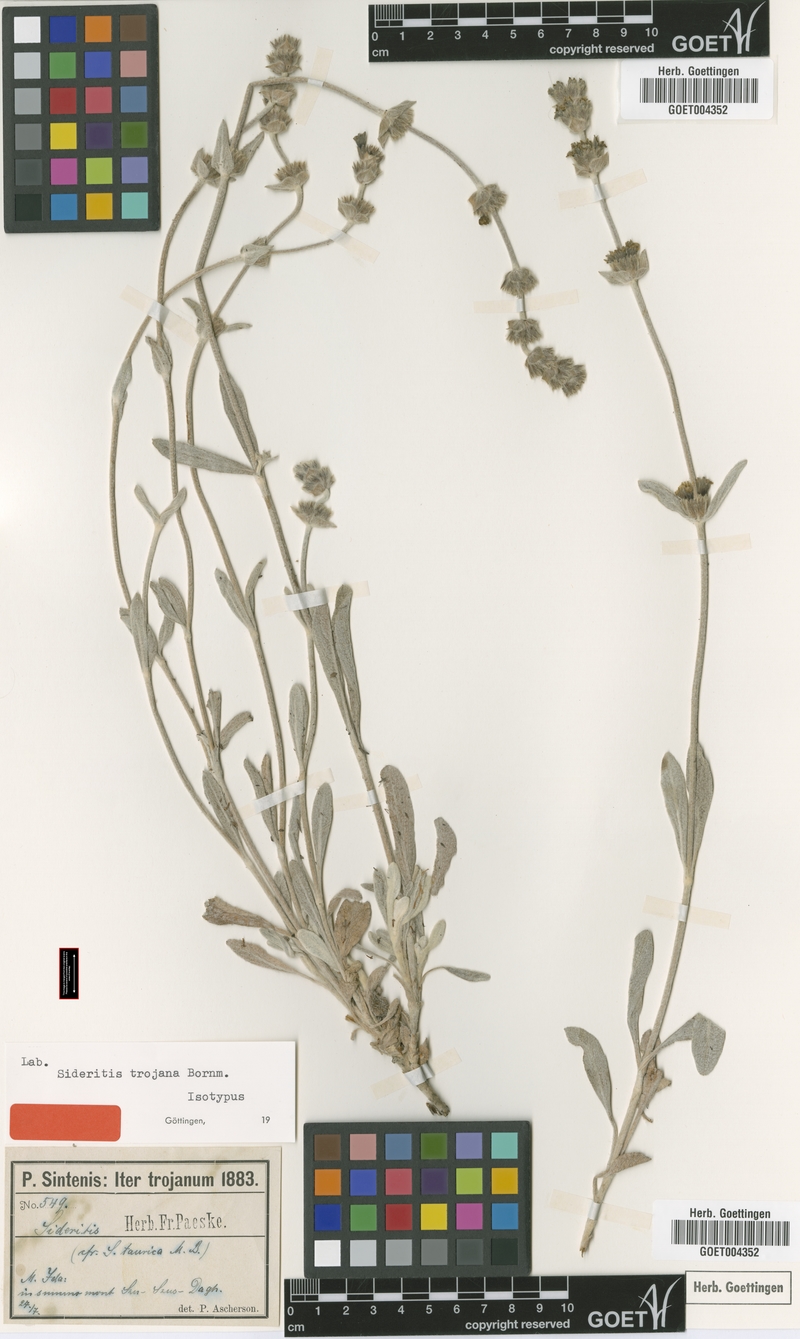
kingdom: Plantae
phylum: Tracheophyta
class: Magnoliopsida
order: Lamiales
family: Lamiaceae
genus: Sideritis
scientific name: Sideritis trojana
